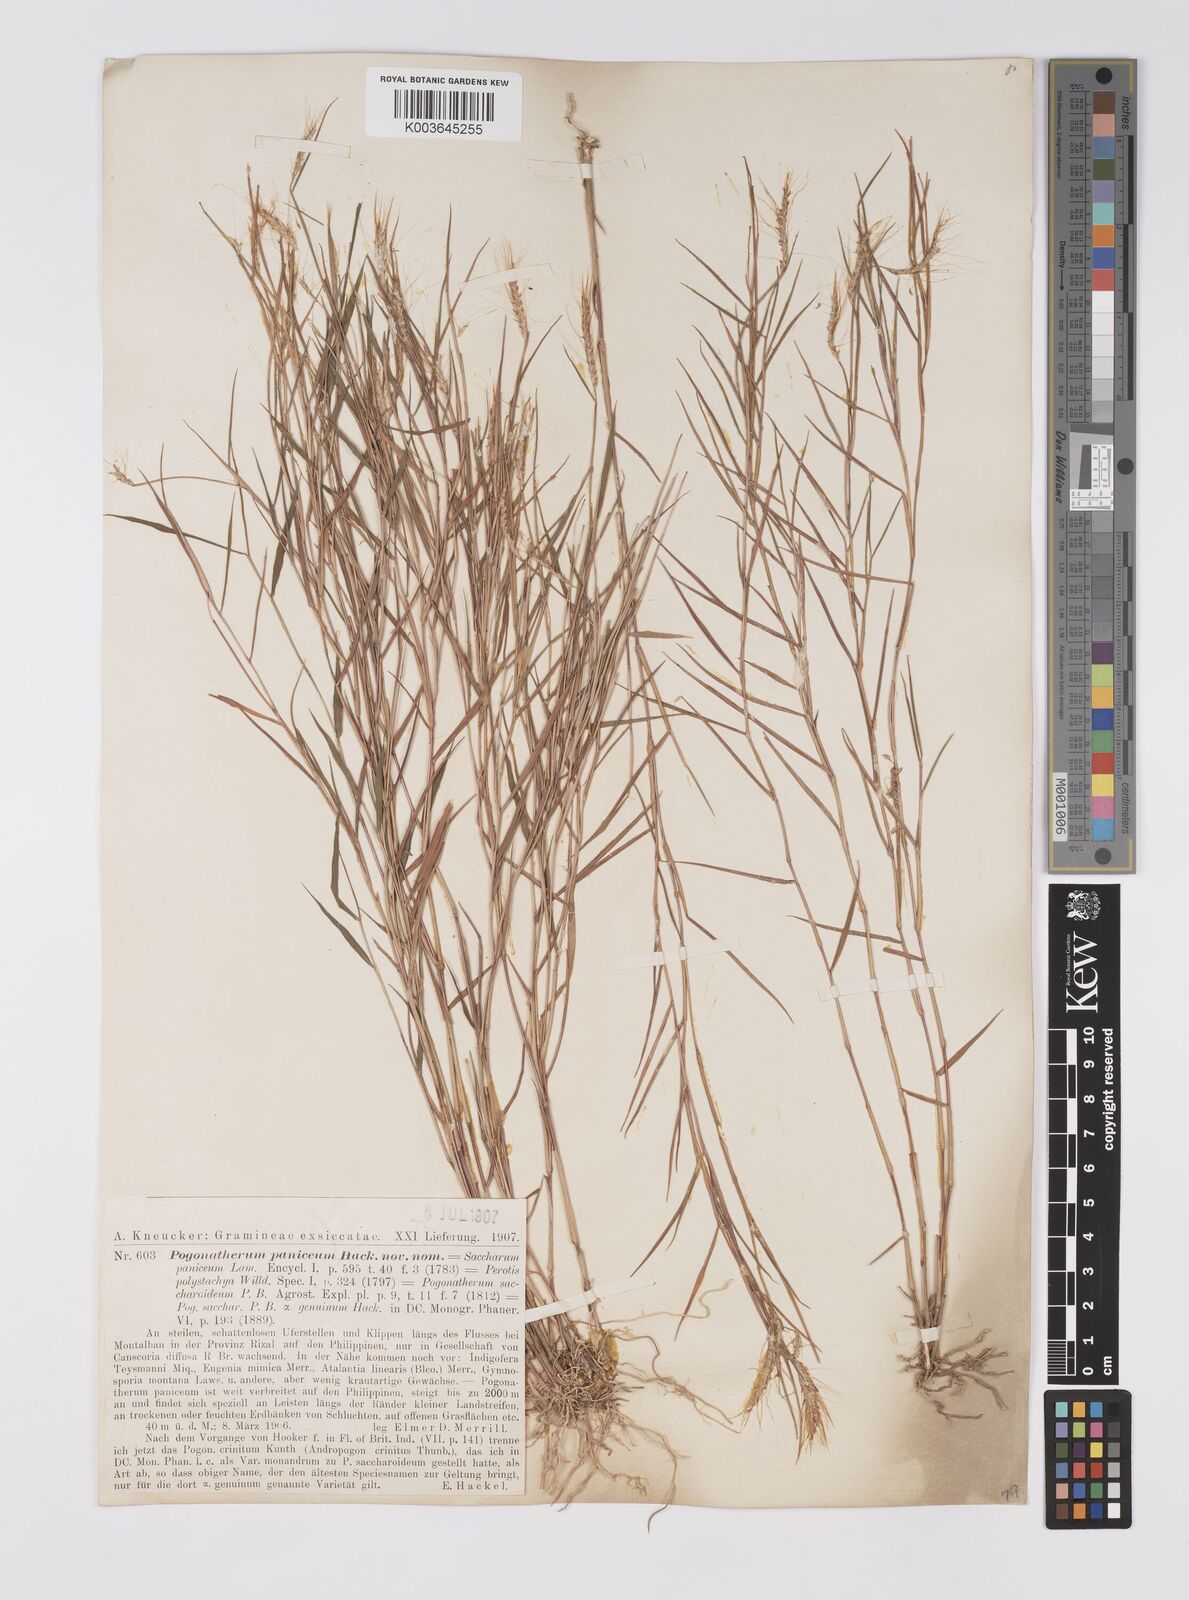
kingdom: Plantae
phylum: Tracheophyta
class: Liliopsida
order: Poales
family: Poaceae
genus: Pogonatherum
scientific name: Pogonatherum paniceum
